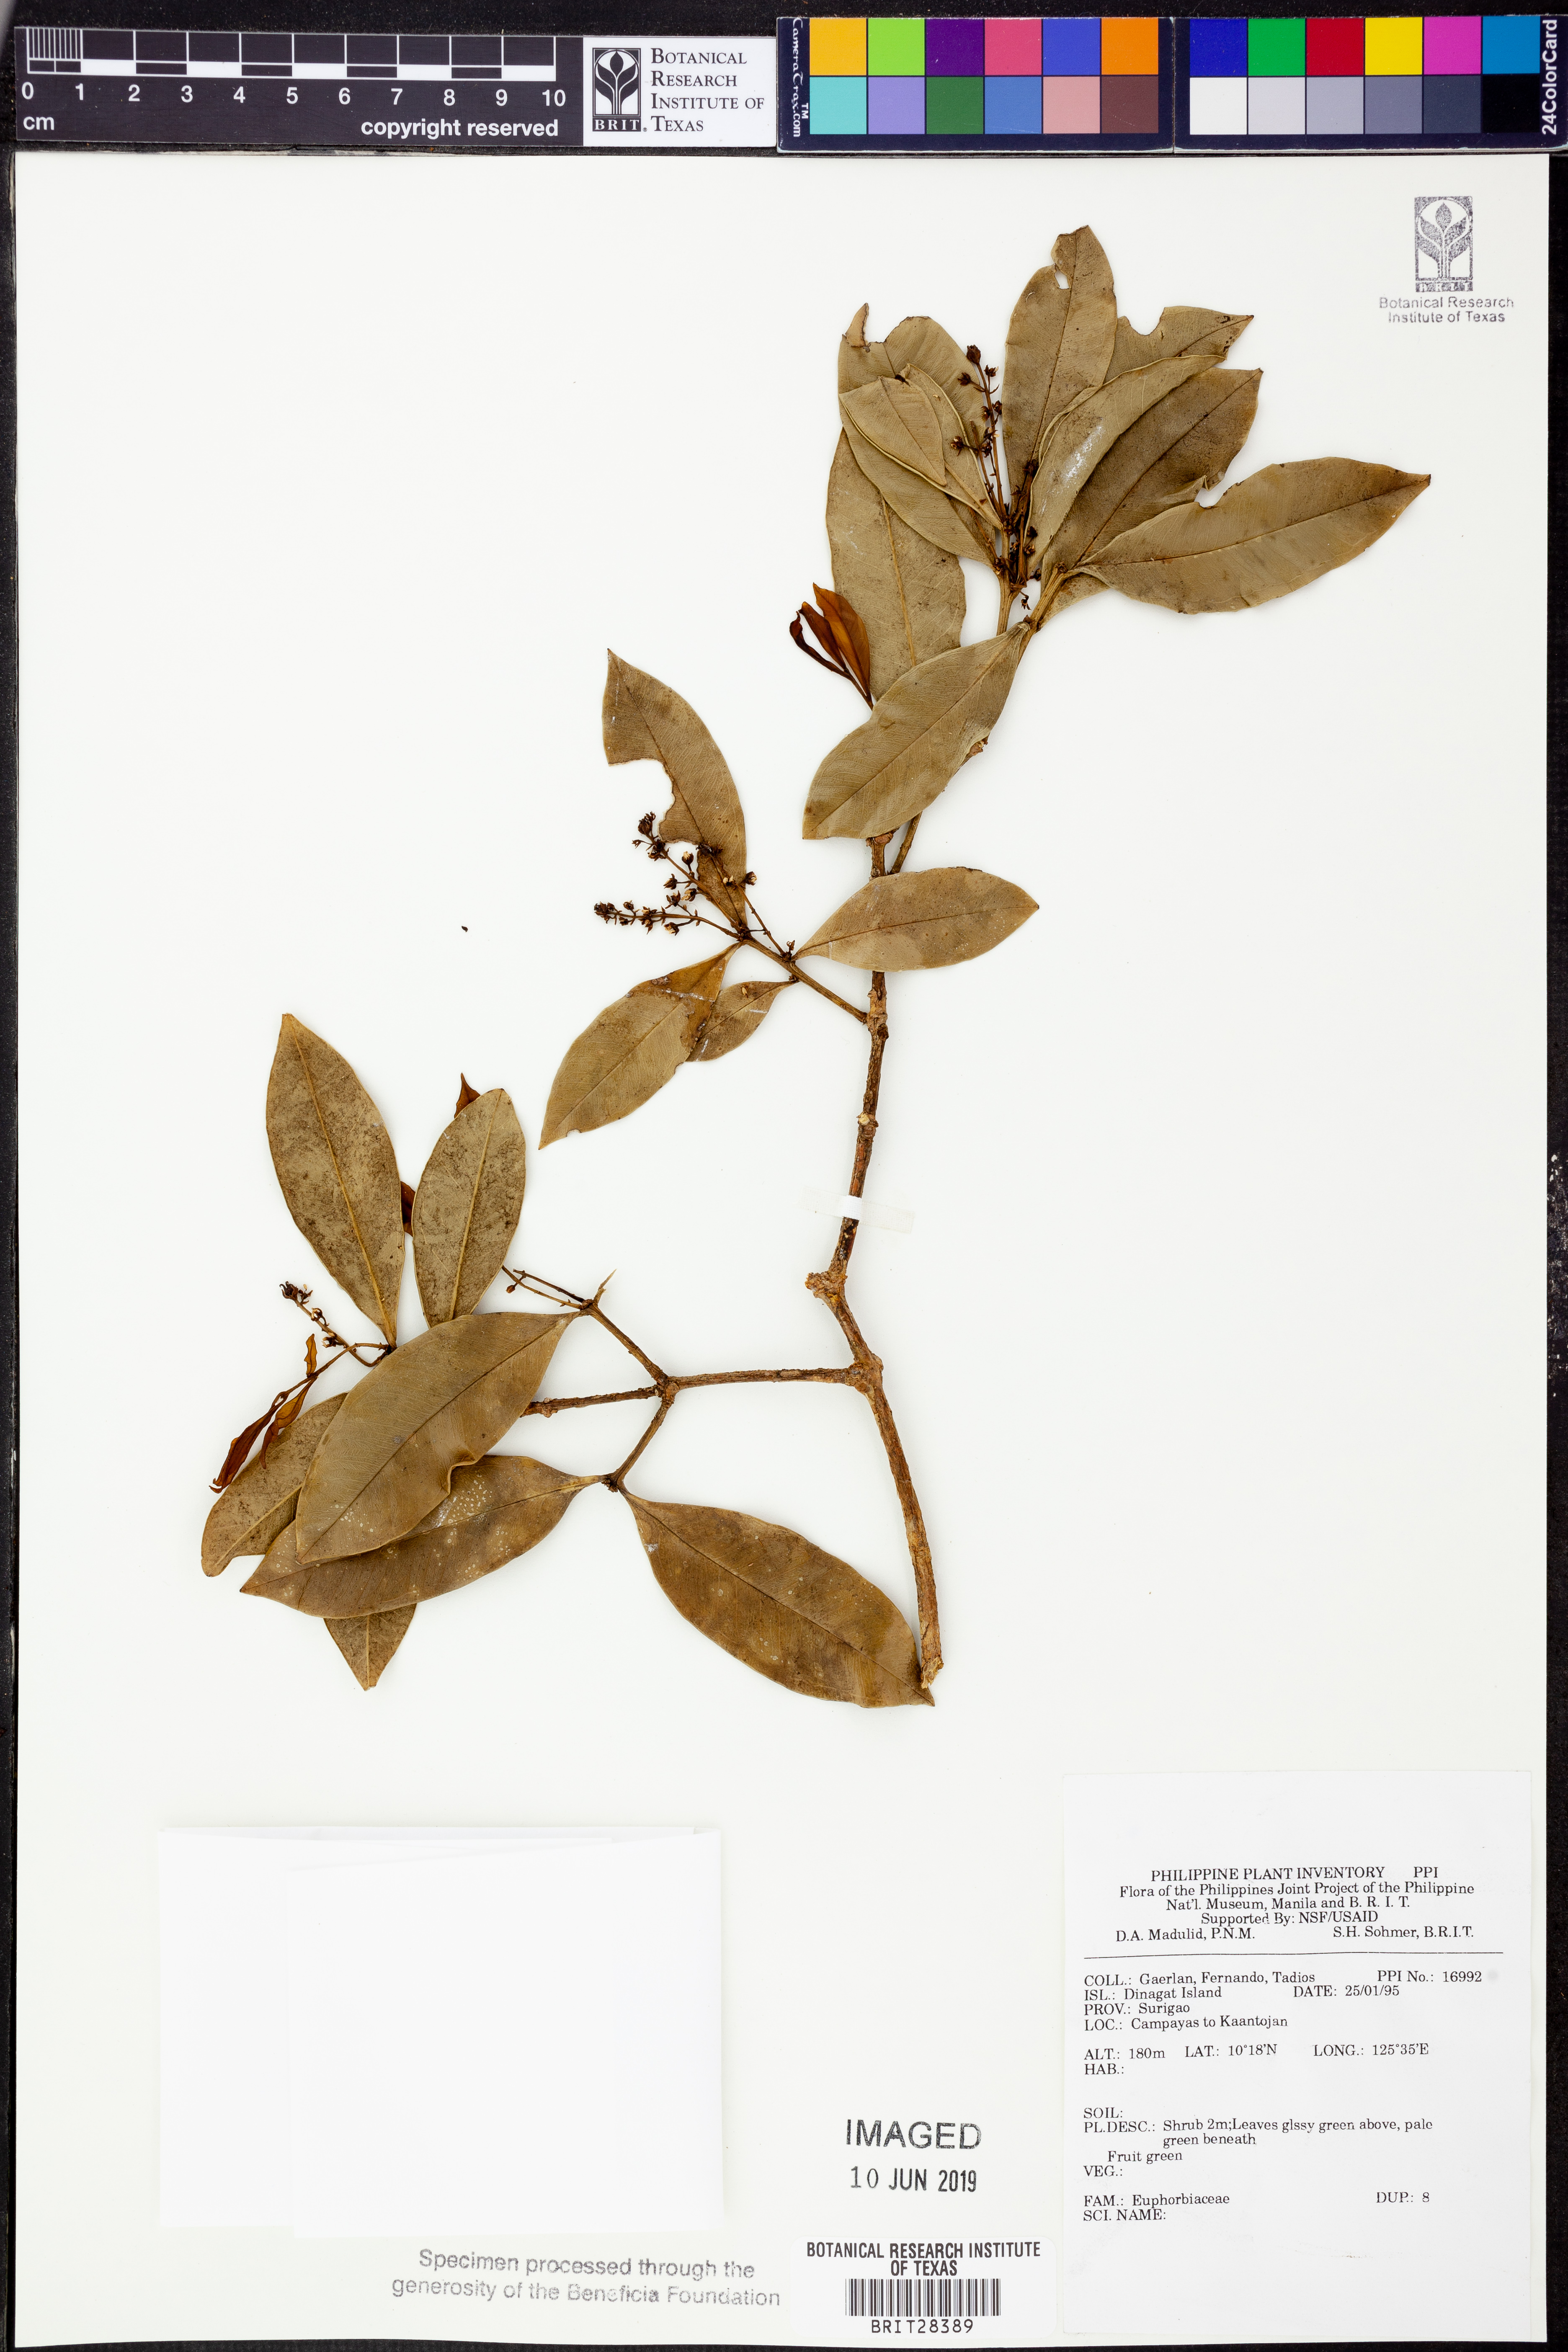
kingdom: Plantae
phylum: Tracheophyta
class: Magnoliopsida
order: Malpighiales
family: Euphorbiaceae
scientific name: Euphorbiaceae
